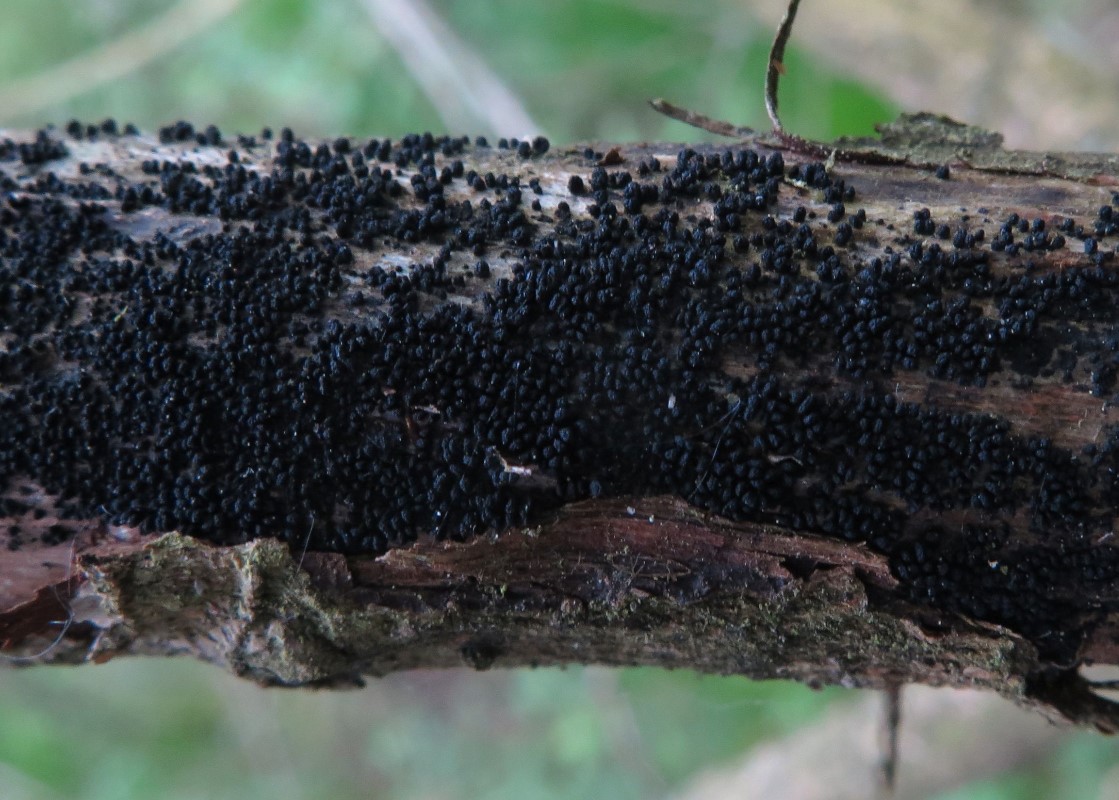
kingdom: Fungi
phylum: Ascomycota
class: Sordariomycetes
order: Coronophorales
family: Bertiaceae
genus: Bertia
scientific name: Bertia moriformis
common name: almindelig morbærkerne
